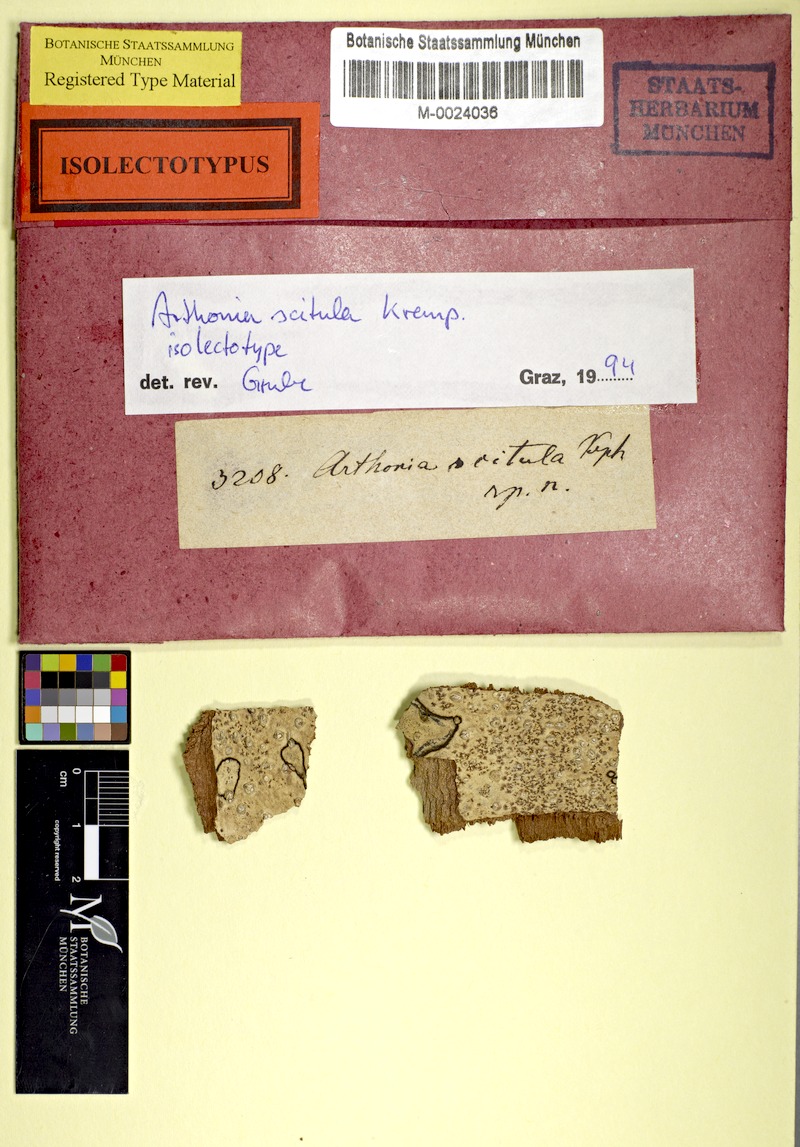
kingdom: Fungi
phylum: Ascomycota
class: Arthoniomycetes
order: Arthoniales
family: Arthoniaceae
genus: Arthonia
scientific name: Arthonia
